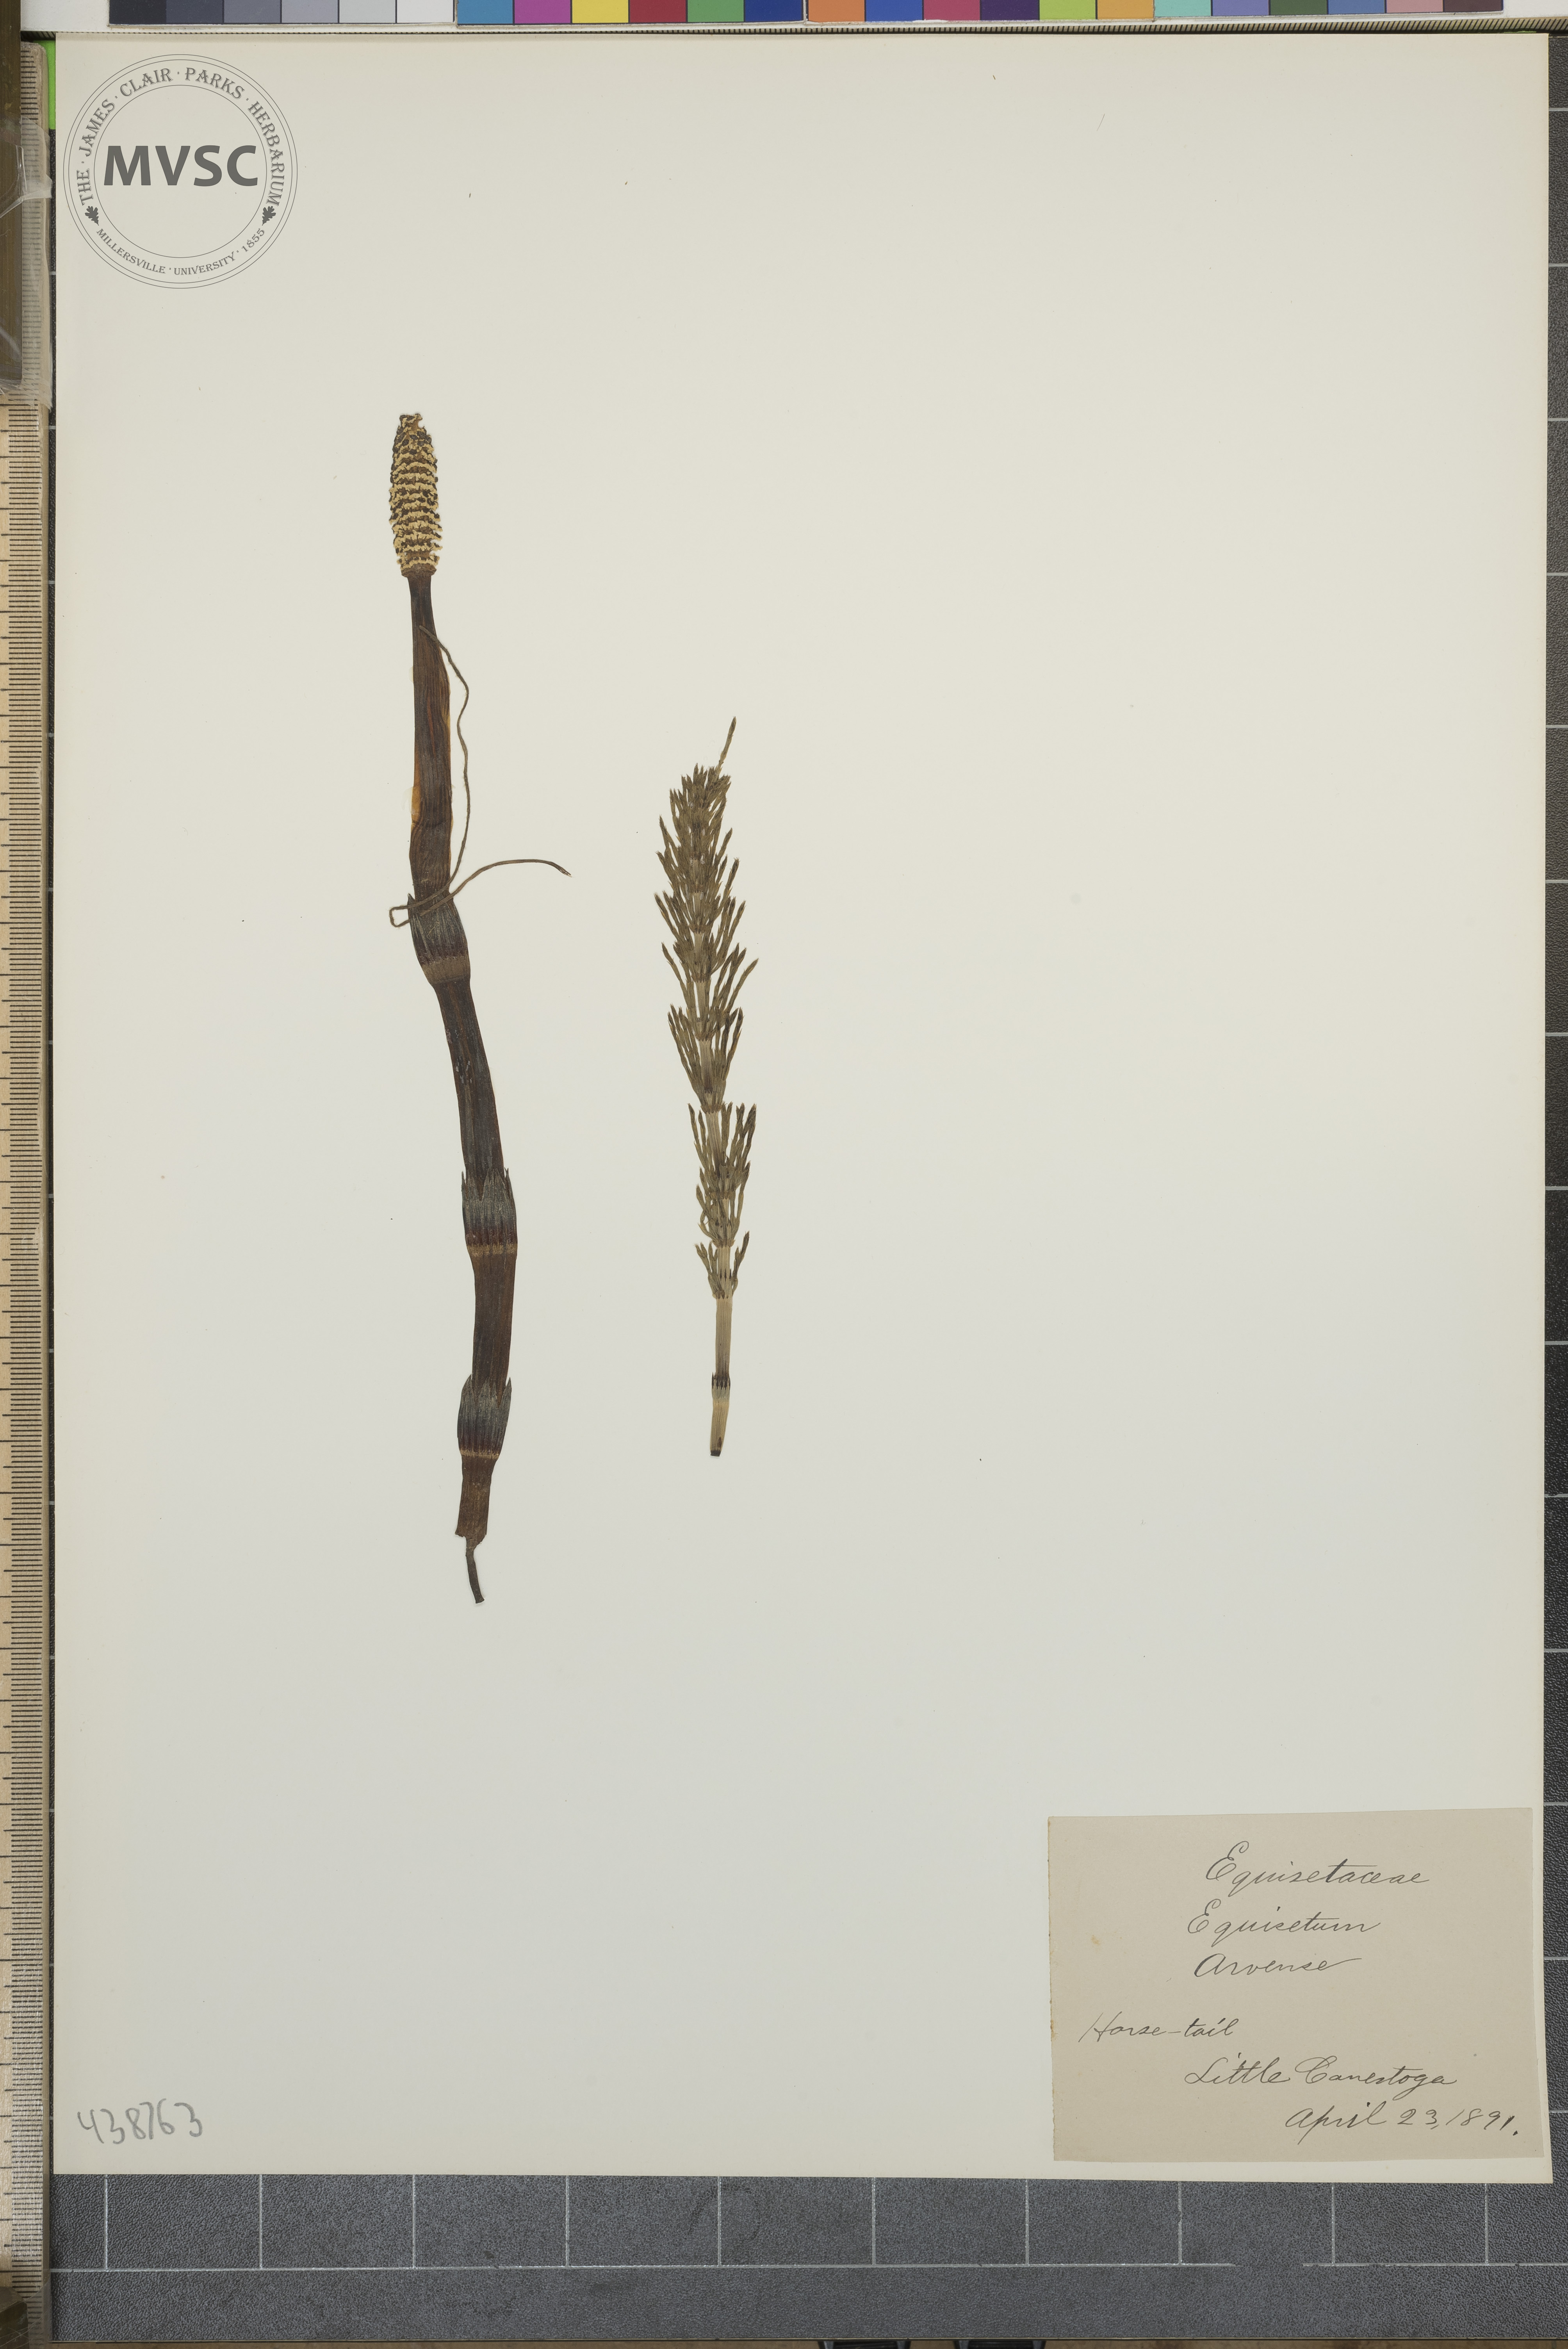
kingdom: Plantae
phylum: Tracheophyta
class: Polypodiopsida
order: Equisetales
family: Equisetaceae
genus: Equisetum
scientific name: Equisetum arvense
